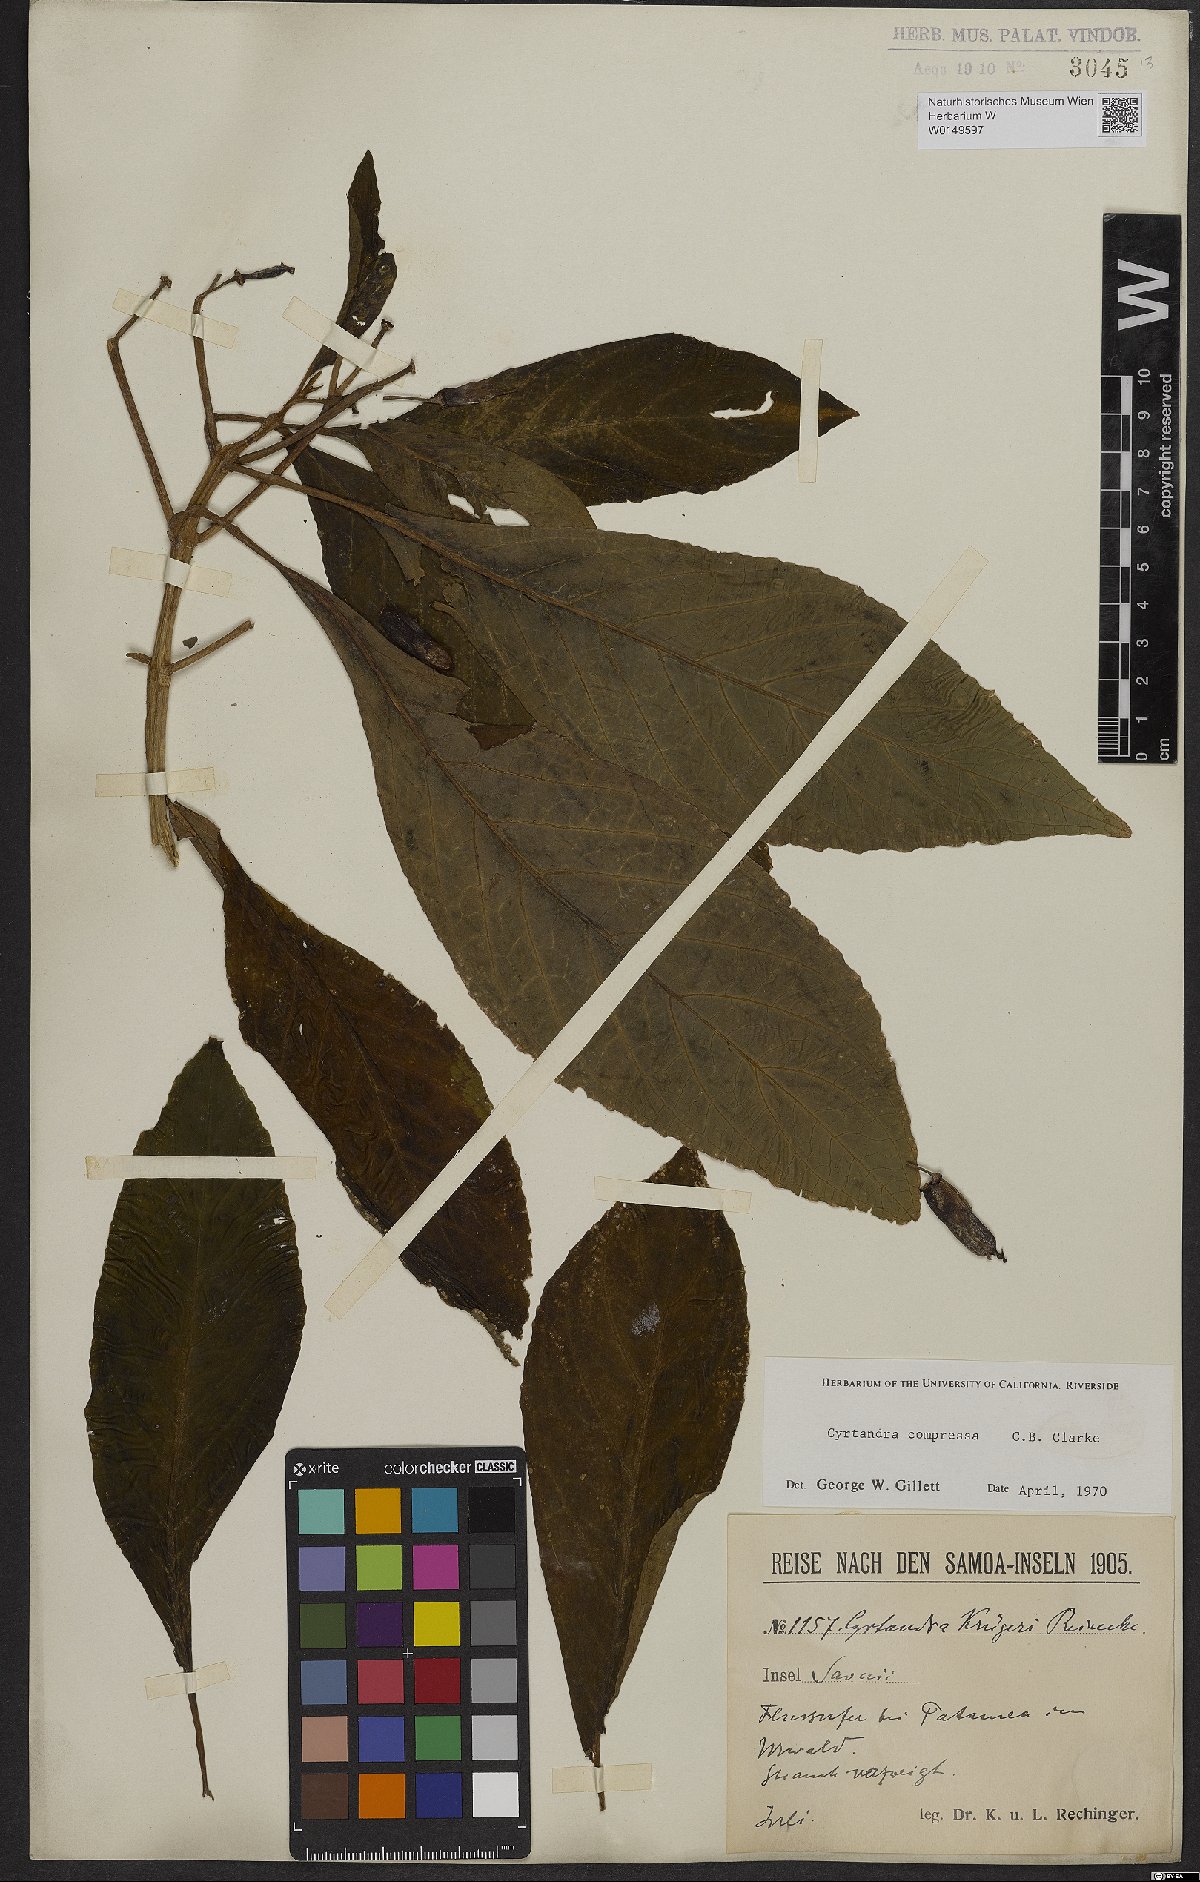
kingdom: Plantae
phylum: Tracheophyta
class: Magnoliopsida
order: Lamiales
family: Gesneriaceae
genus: Cyrtandra
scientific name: Cyrtandra compressa
